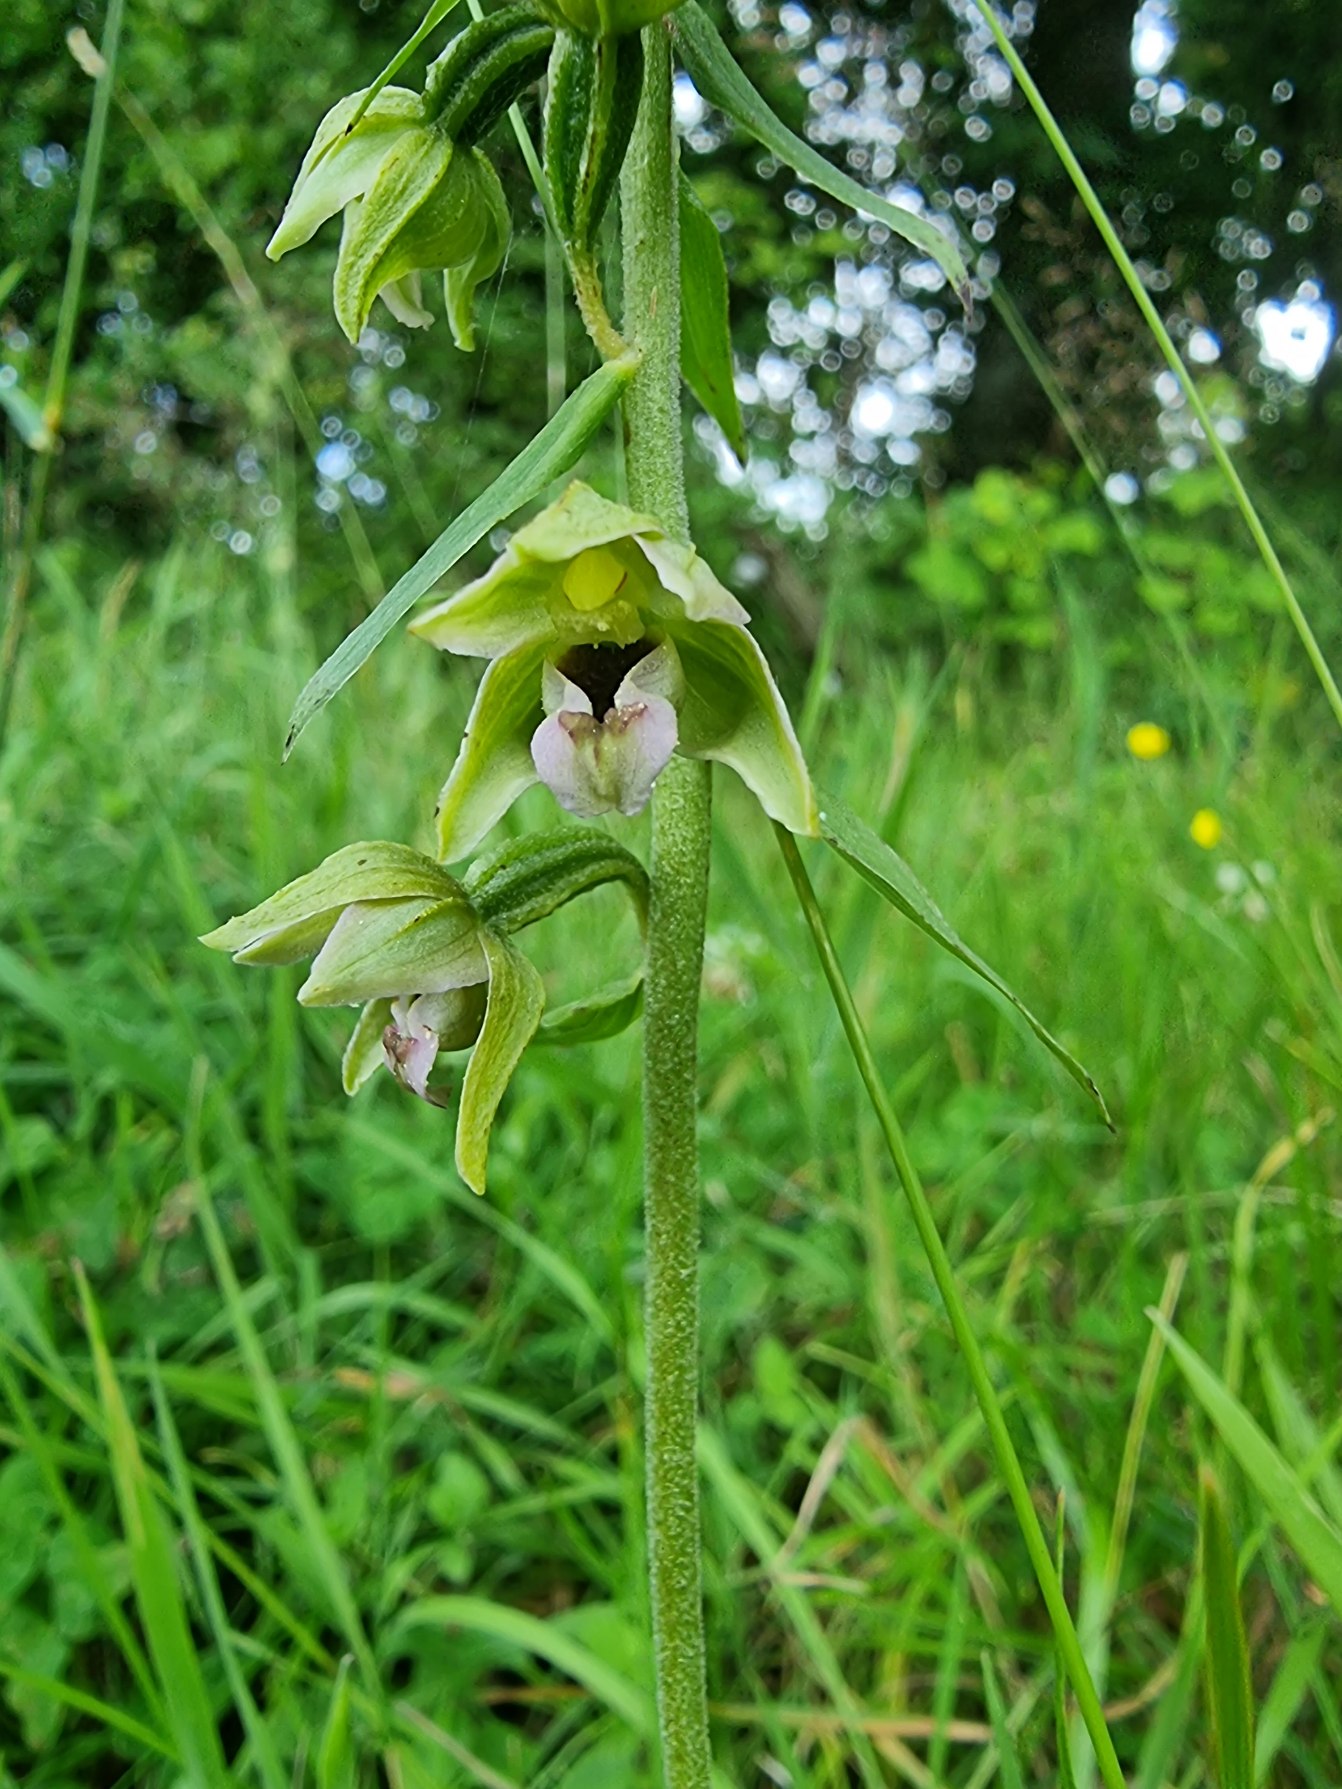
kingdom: Plantae
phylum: Tracheophyta
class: Liliopsida
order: Asparagales
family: Orchidaceae
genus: Epipactis
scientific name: Epipactis helleborine
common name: Skov-hullæbe
